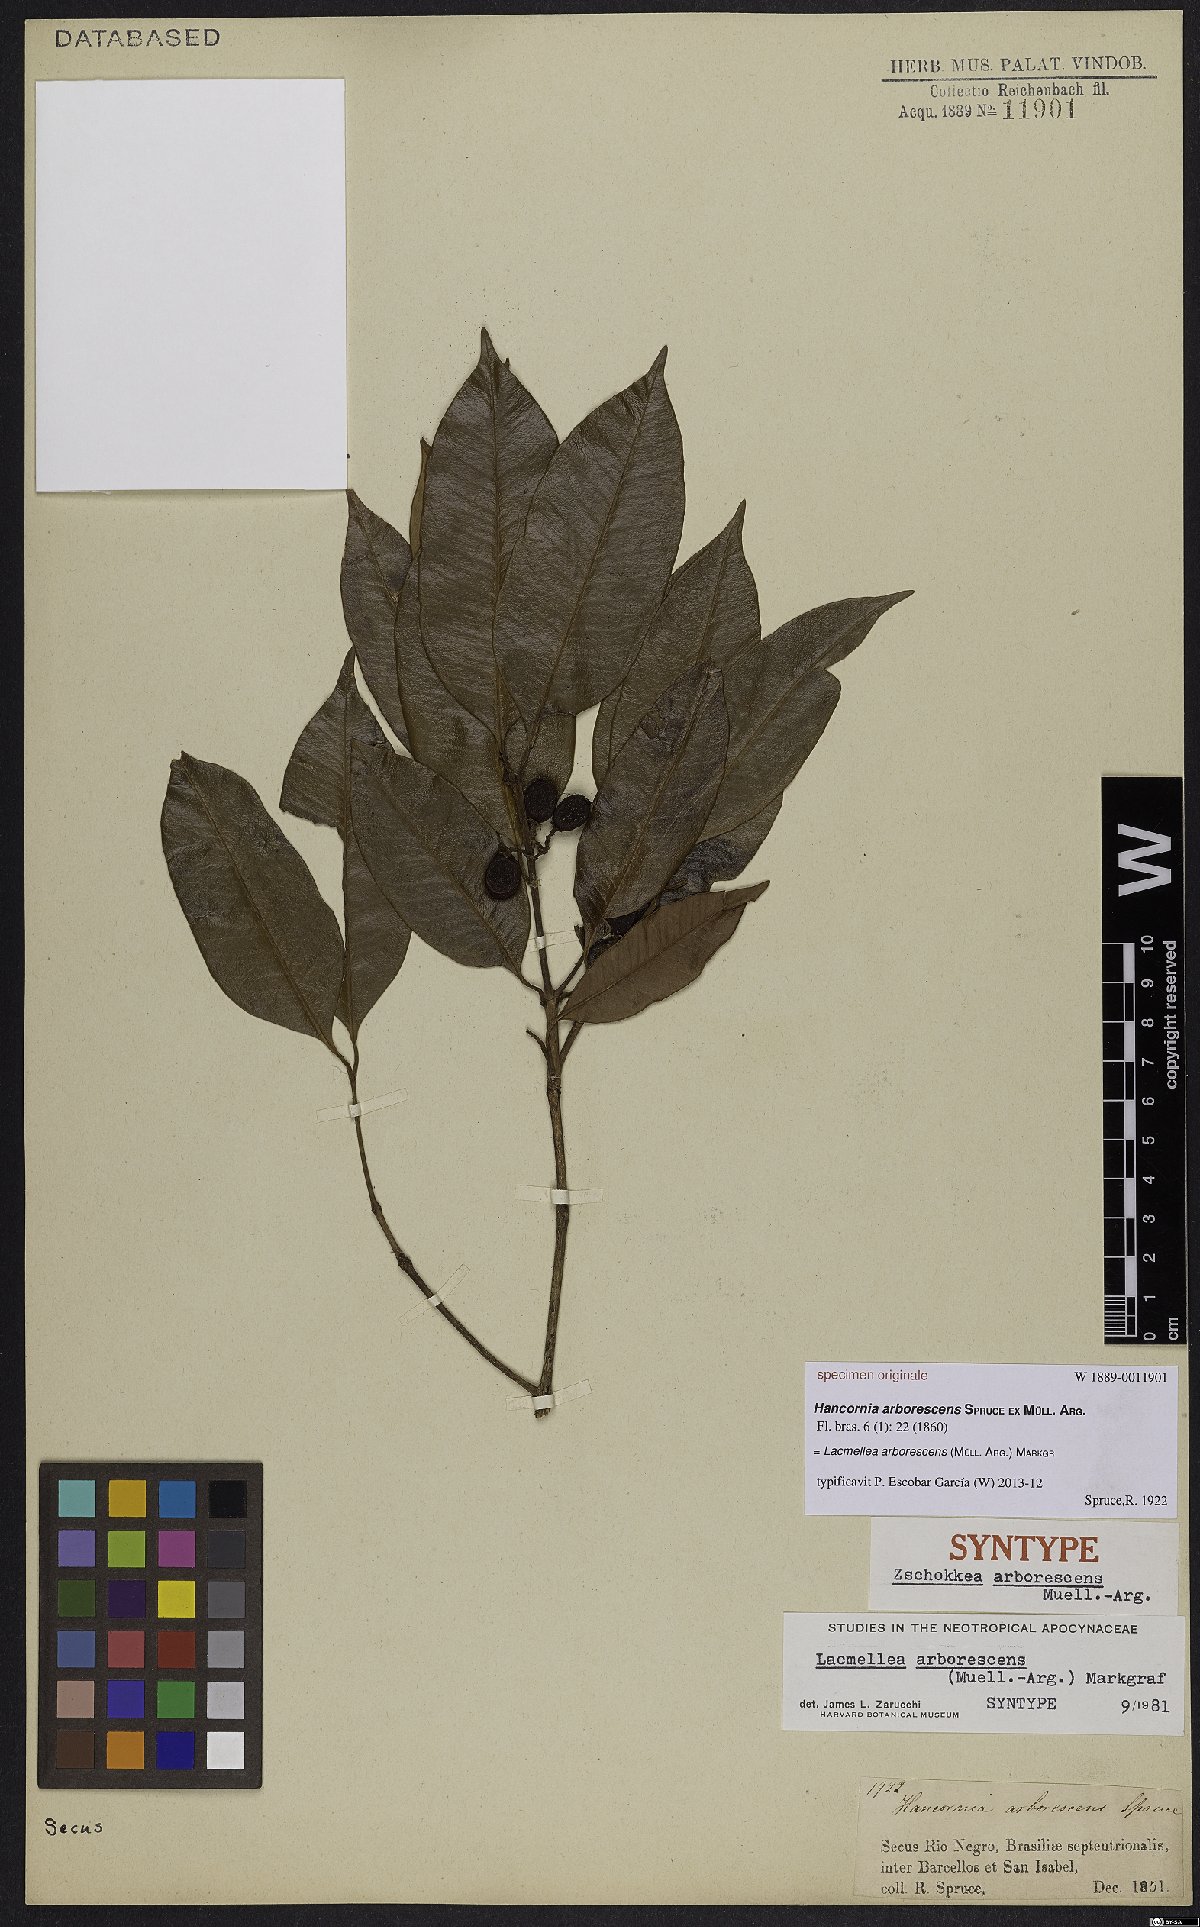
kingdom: Plantae
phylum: Tracheophyta
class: Magnoliopsida
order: Gentianales
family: Apocynaceae
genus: Lacmellea
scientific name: Lacmellea arborescens
